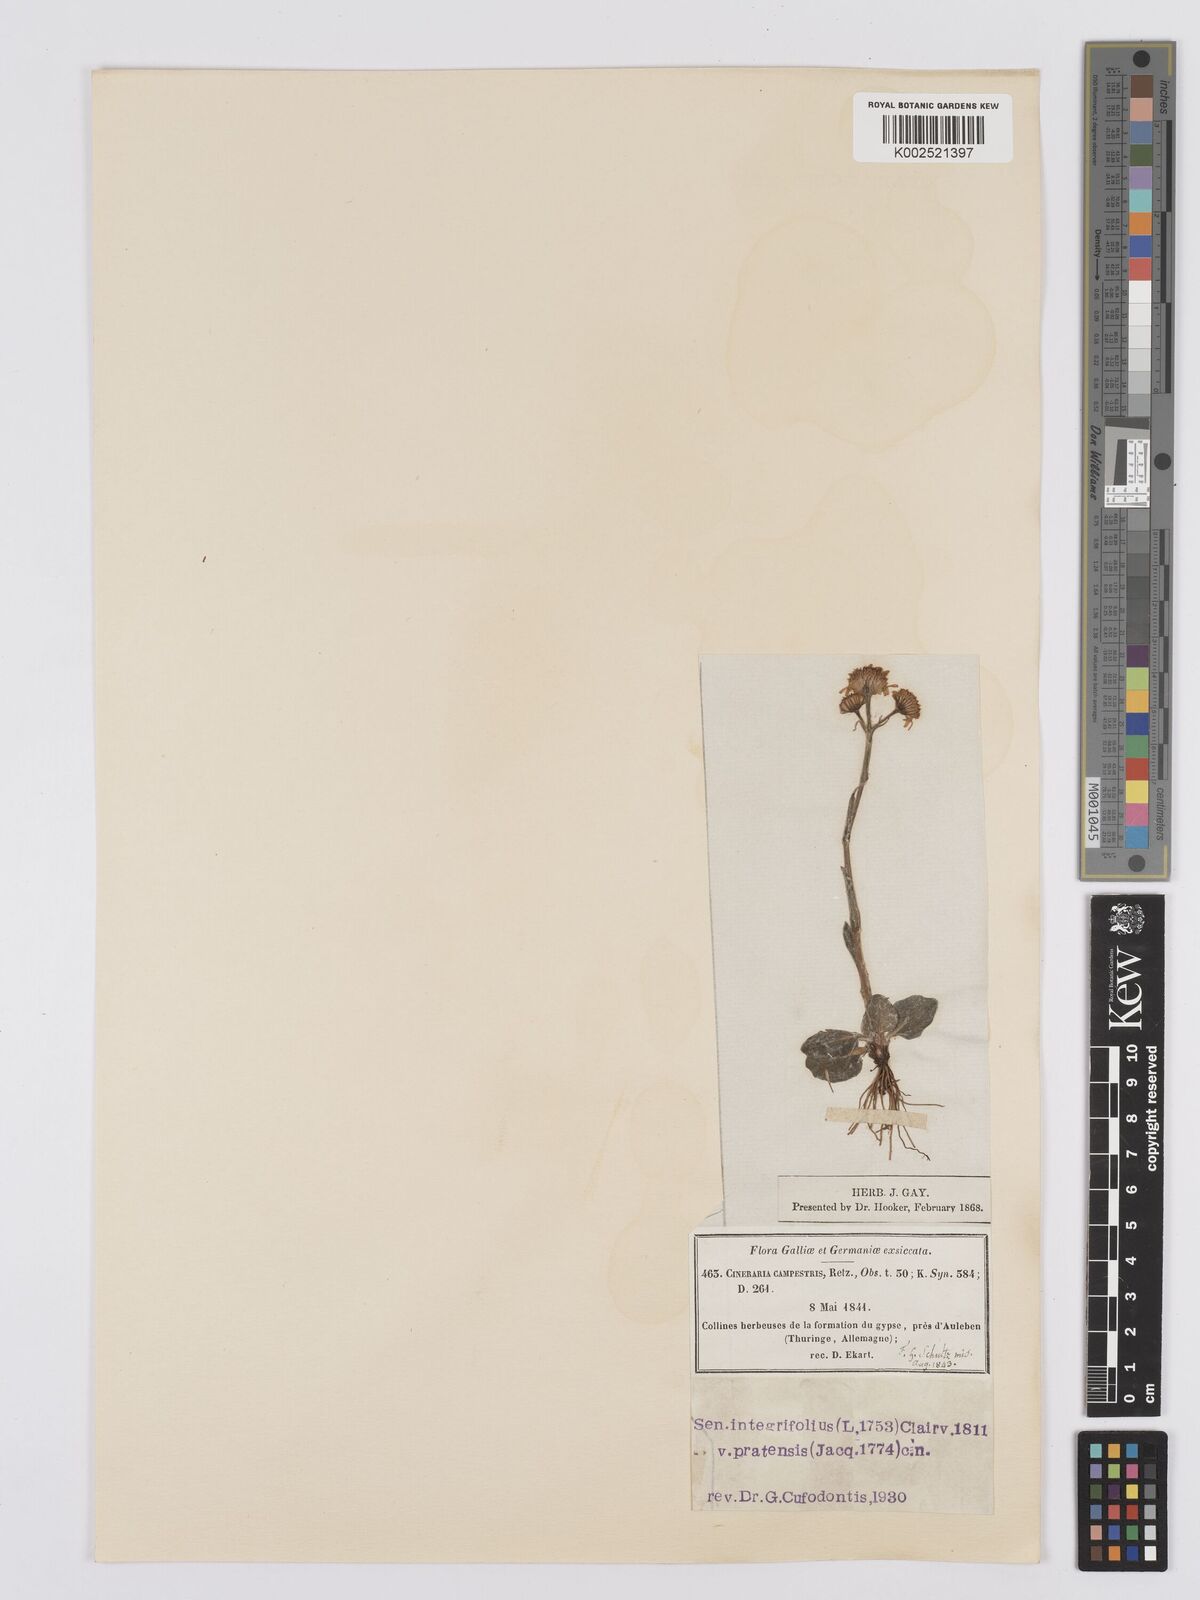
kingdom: Plantae
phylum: Tracheophyta
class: Magnoliopsida
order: Asterales
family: Asteraceae
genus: Tephroseris
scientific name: Tephroseris integrifolia
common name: Field fleawort
